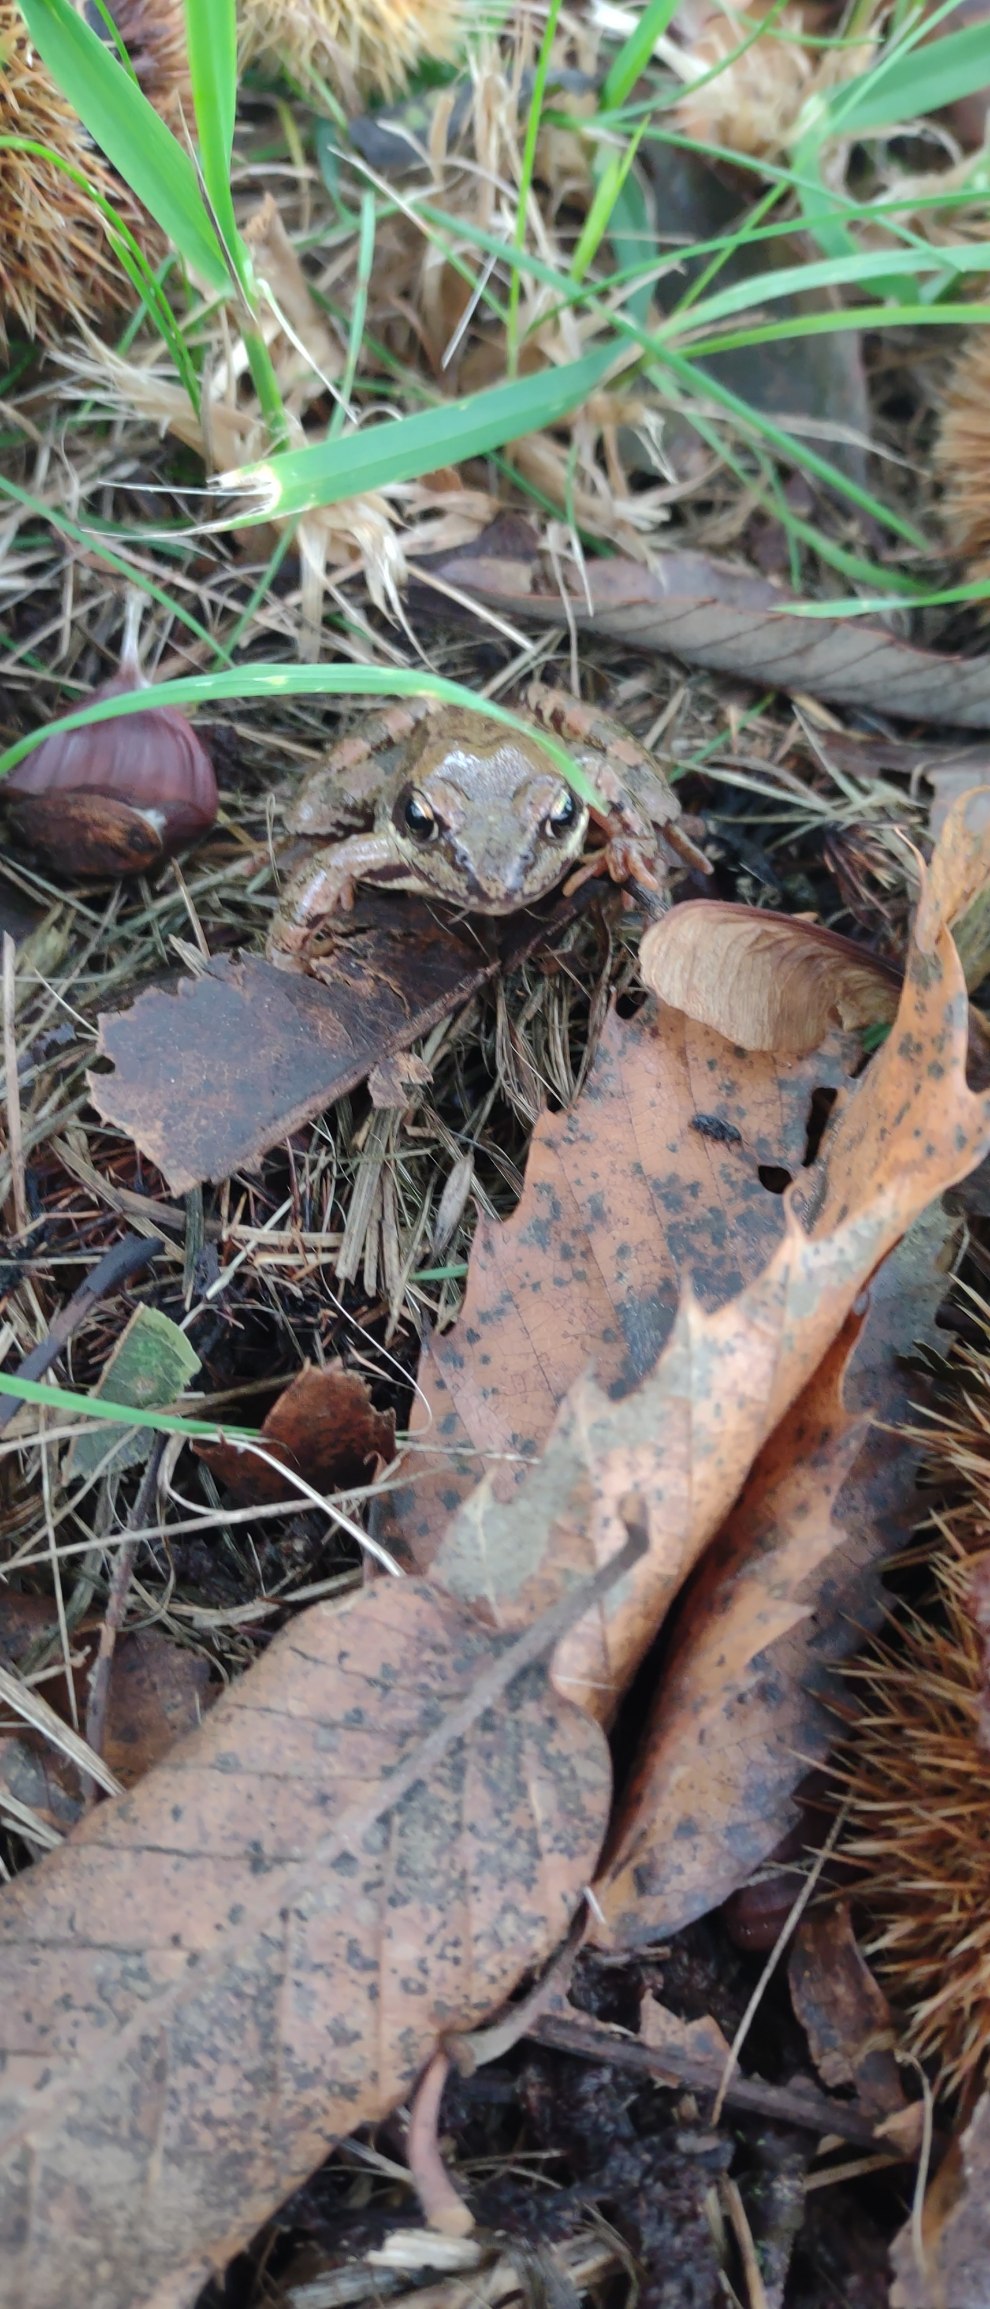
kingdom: Animalia
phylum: Chordata
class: Amphibia
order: Anura
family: Ranidae
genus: Rana
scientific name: Rana temporaria
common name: Butsnudet frø
